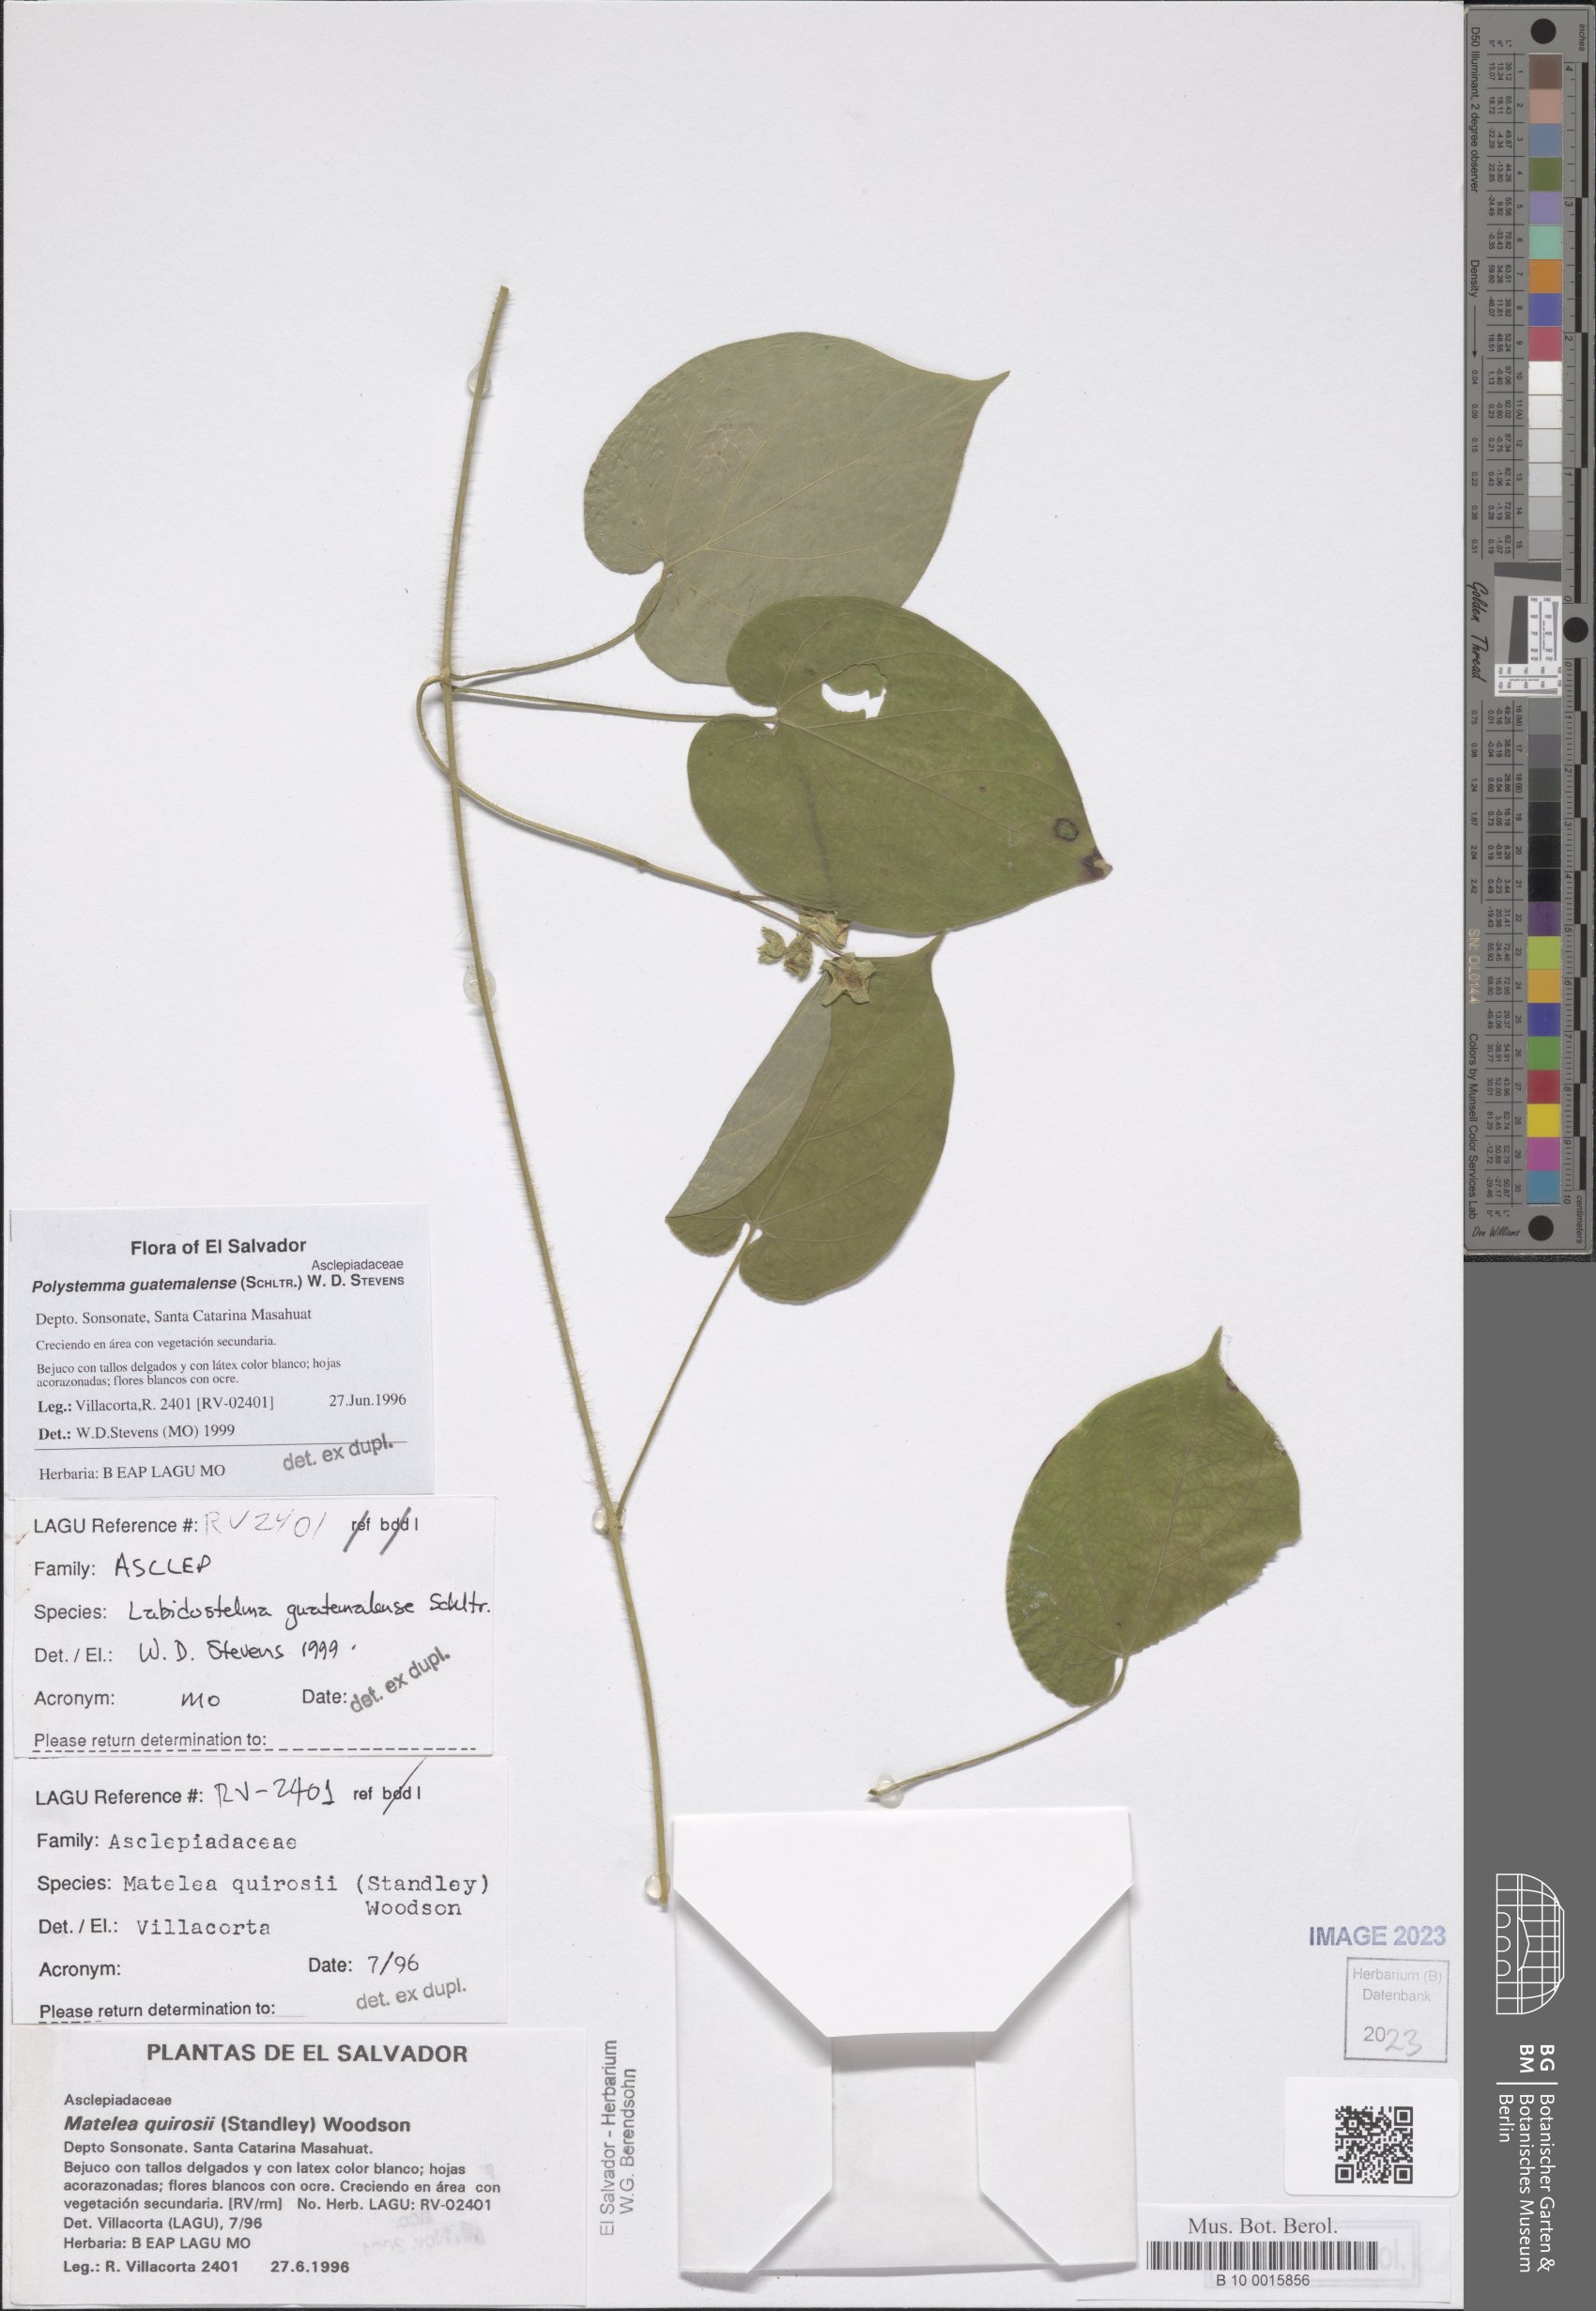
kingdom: Plantae
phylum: Tracheophyta
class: Magnoliopsida
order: Gentianales
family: Apocynaceae
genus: Polystemma
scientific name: Polystemma guatemalense
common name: Arborescente rattan
